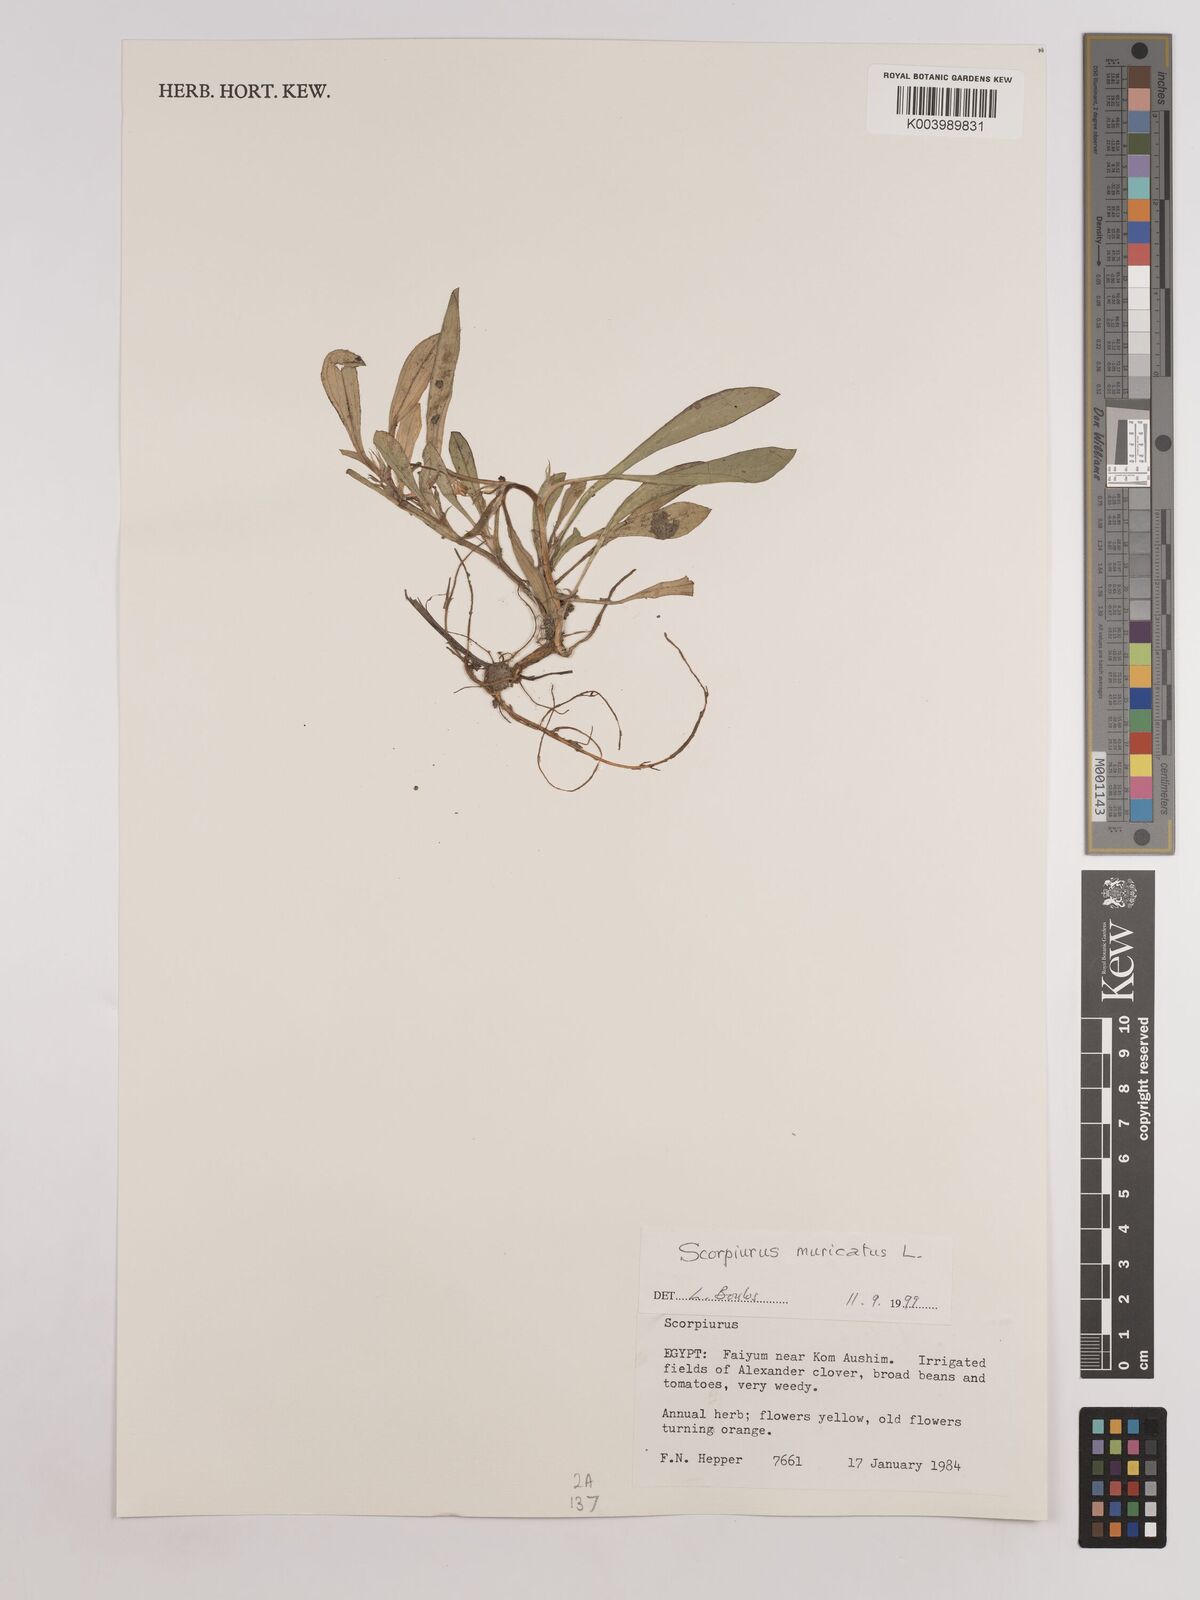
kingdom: Plantae
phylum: Tracheophyta
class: Magnoliopsida
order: Fabales
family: Fabaceae
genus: Scorpiurus
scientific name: Scorpiurus muricatus
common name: Caterpillar-plant
